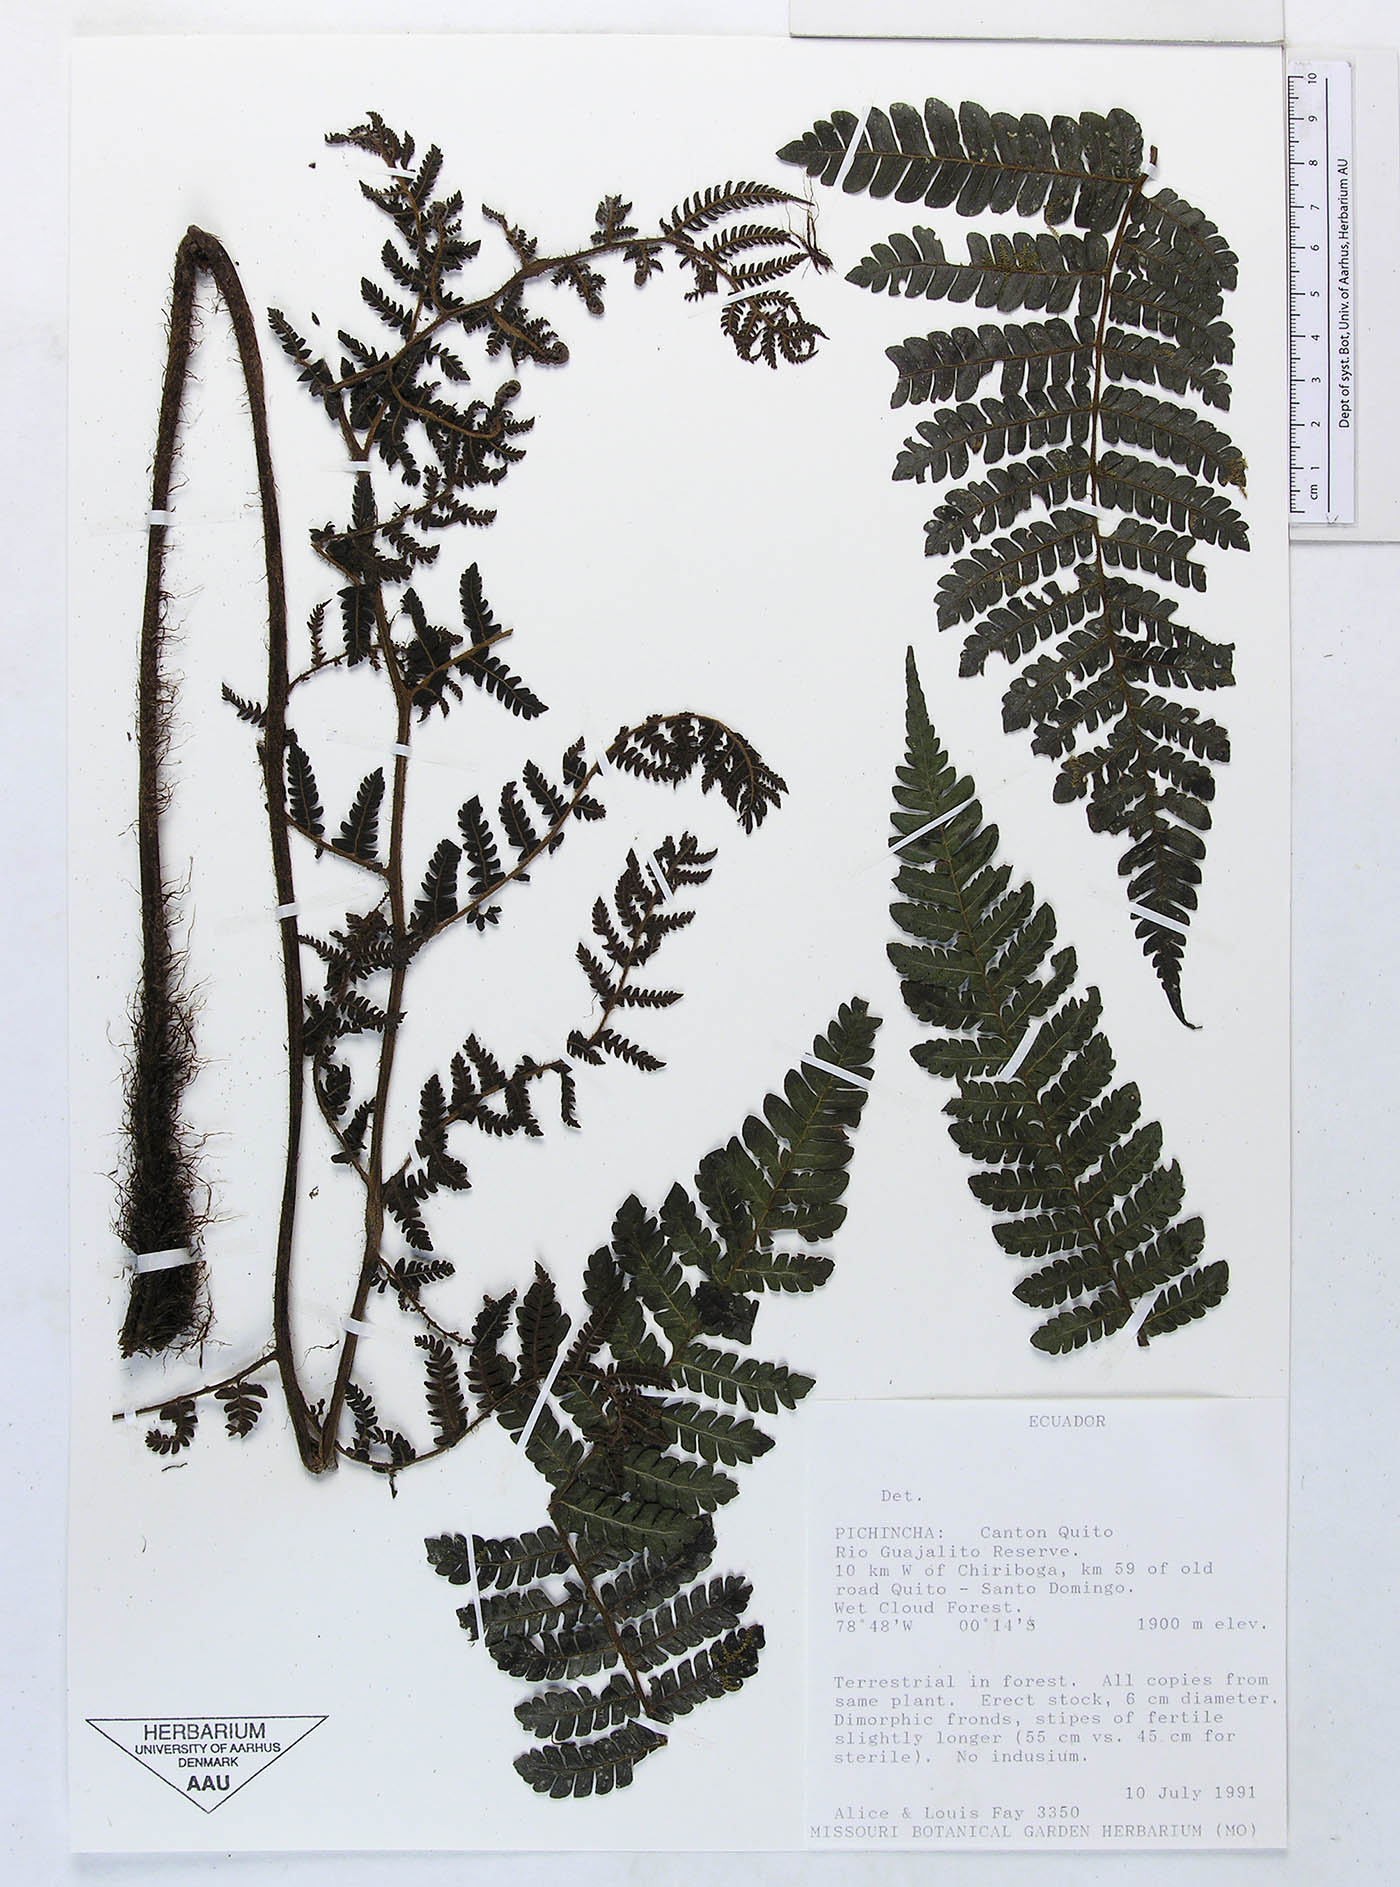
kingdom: Plantae
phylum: Tracheophyta
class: Polypodiopsida
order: Polypodiales
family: Dryopteridaceae
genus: Megalastrum
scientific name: Megalastrum vastum
